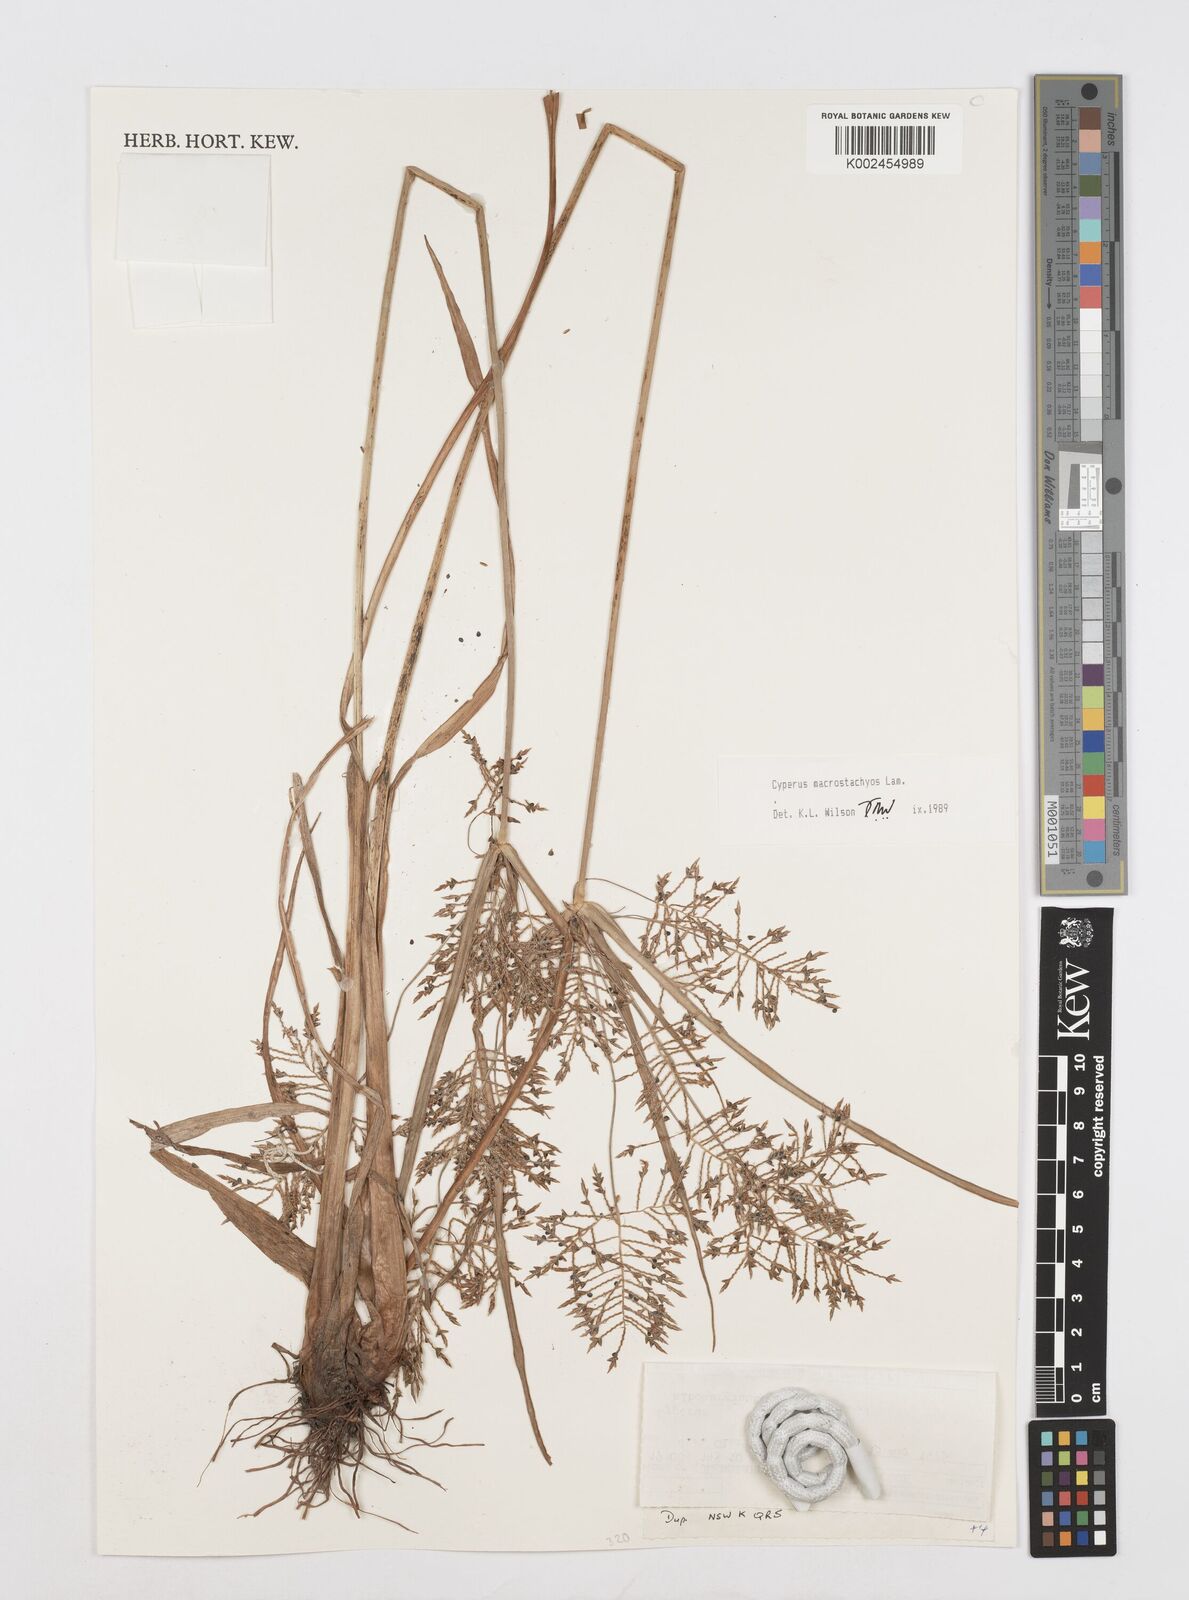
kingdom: Plantae
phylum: Tracheophyta
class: Liliopsida
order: Poales
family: Cyperaceae
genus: Cyperus
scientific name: Cyperus macrostachyos
